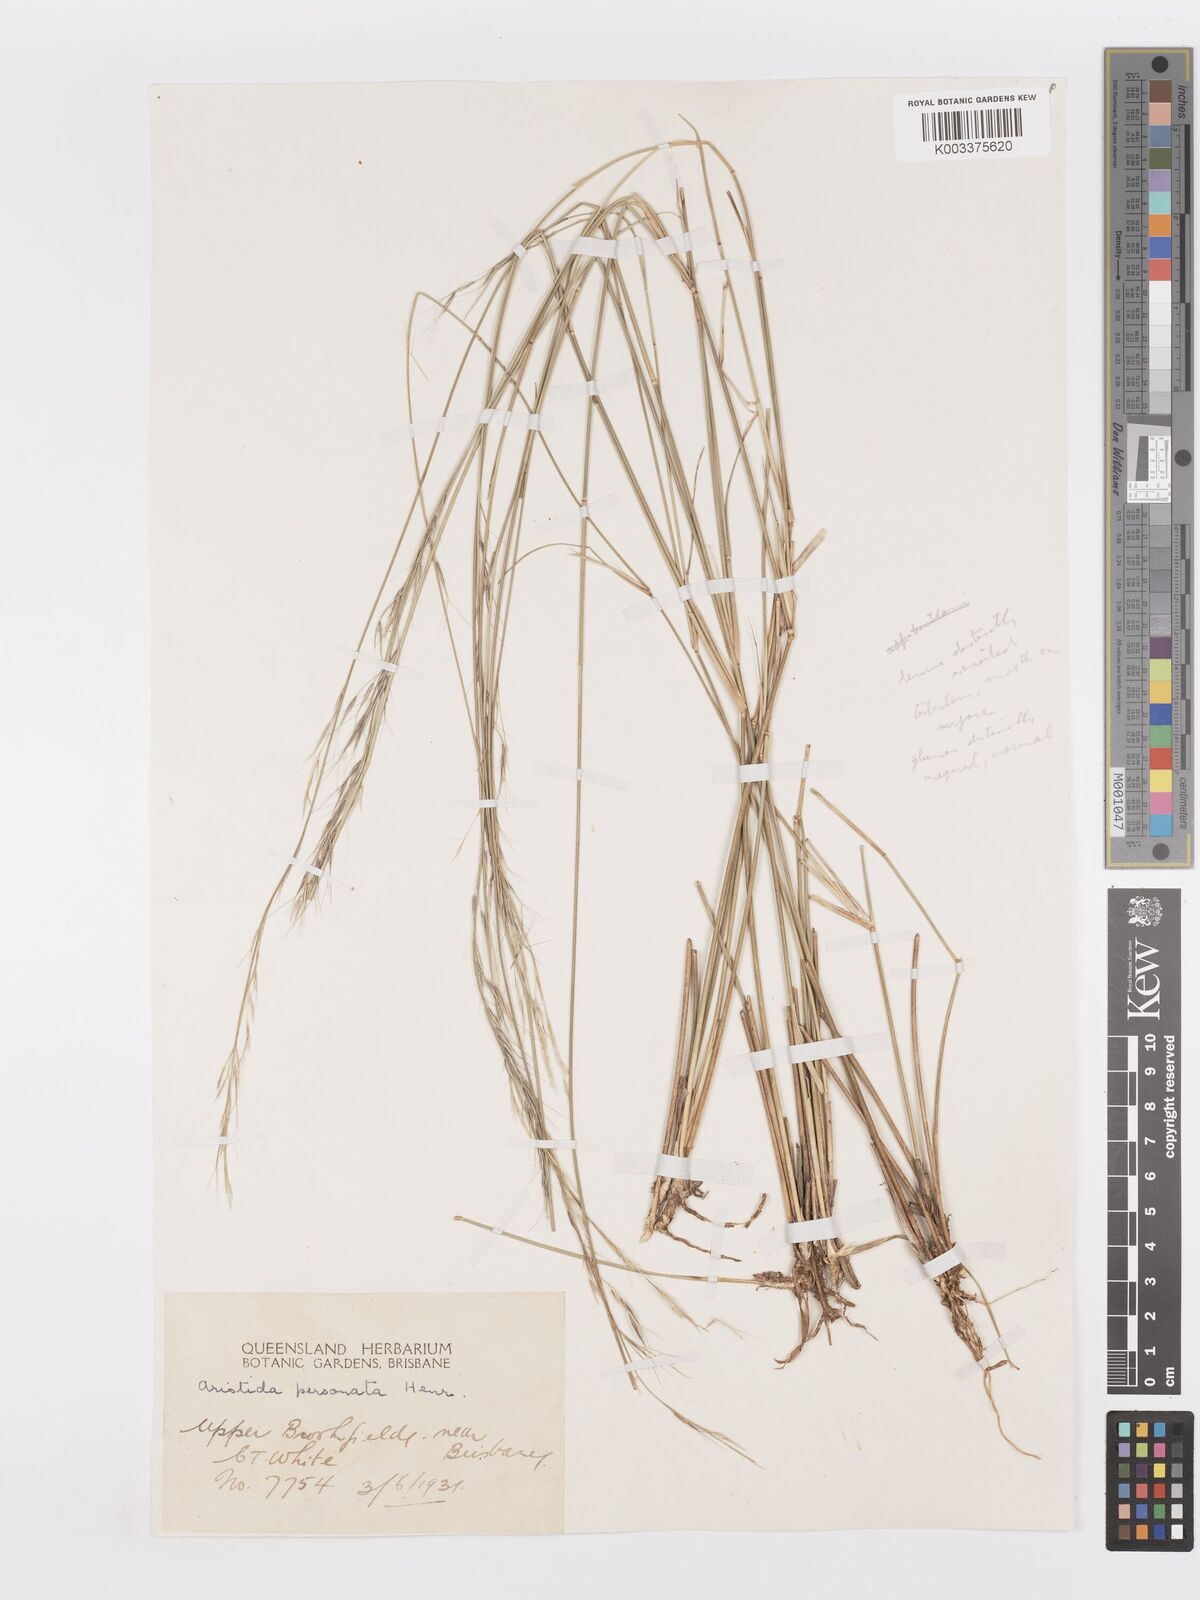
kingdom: Plantae
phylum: Tracheophyta
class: Liliopsida
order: Poales
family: Poaceae
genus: Aristida
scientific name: Aristida personata
